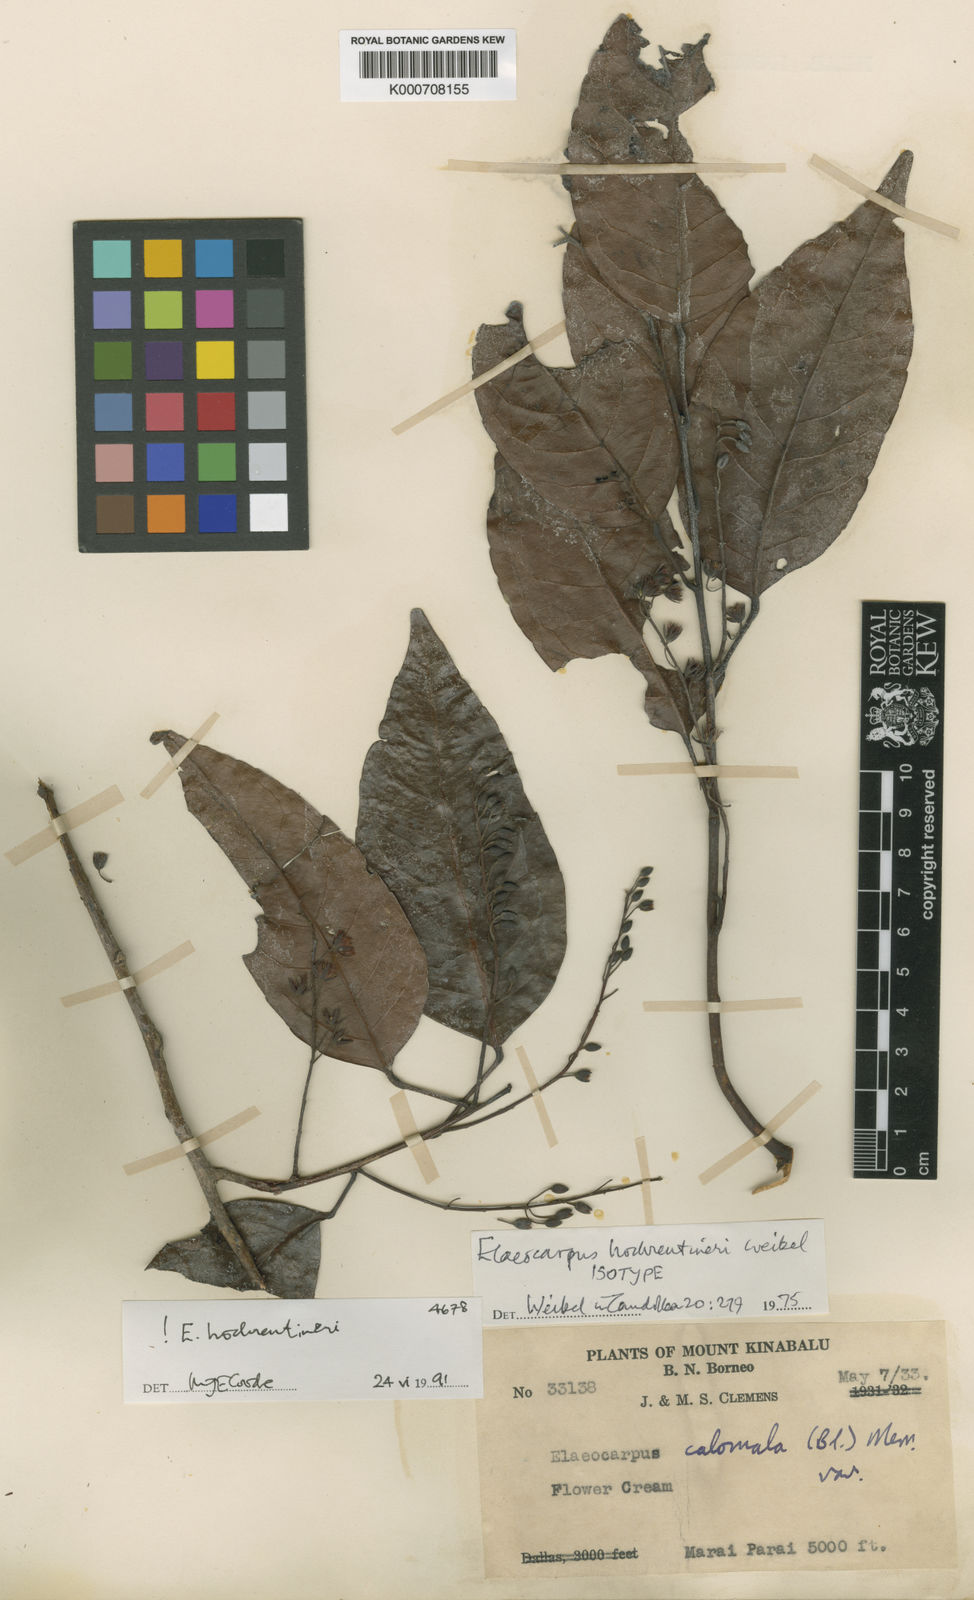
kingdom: Plantae
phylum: Tracheophyta
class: Magnoliopsida
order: Oxalidales
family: Elaeocarpaceae
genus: Elaeocarpus
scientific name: Elaeocarpus hochreutineri
